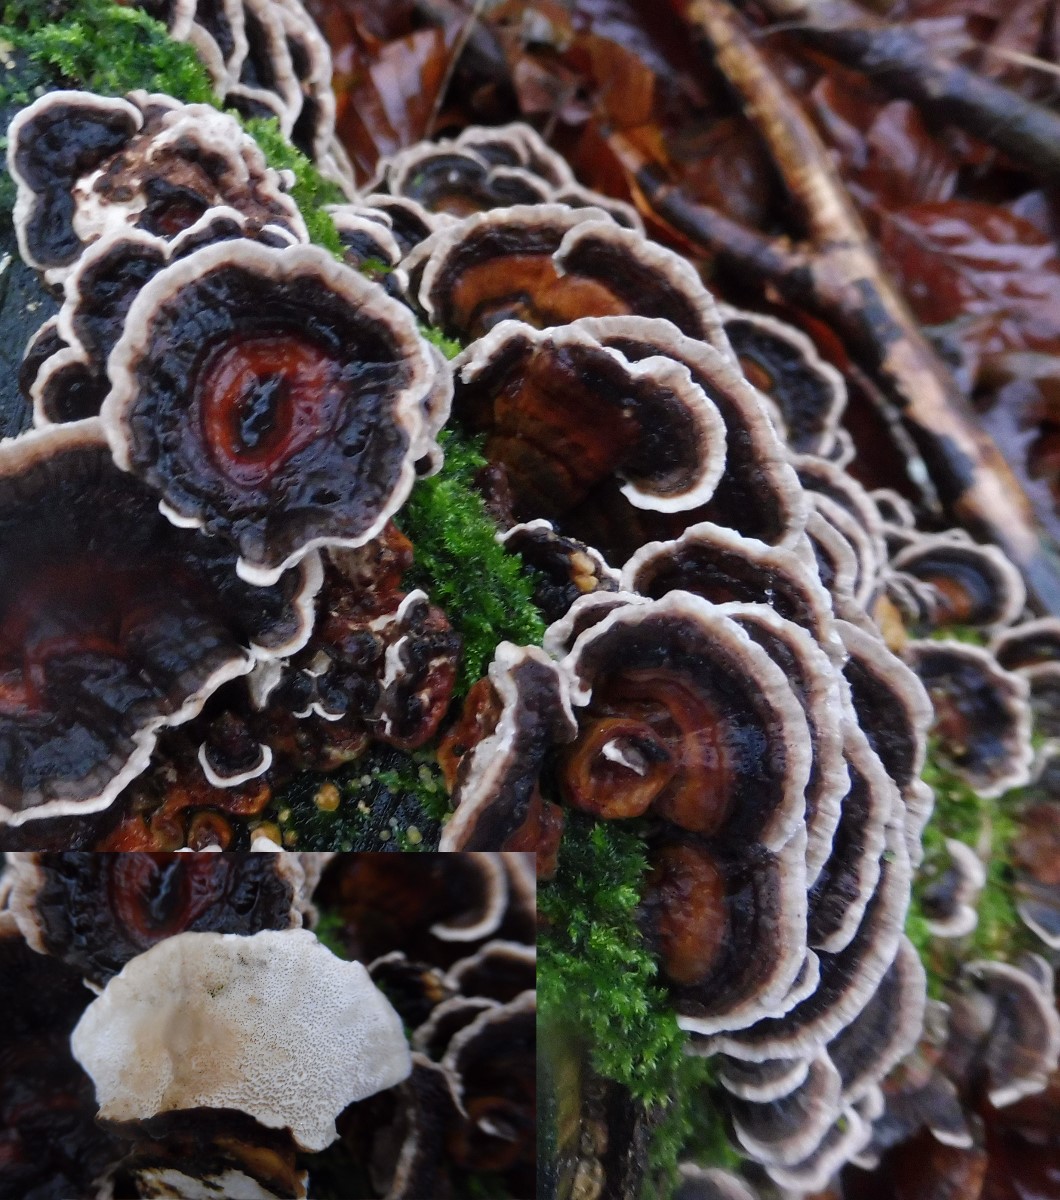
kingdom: Fungi
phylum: Basidiomycota
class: Agaricomycetes
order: Polyporales
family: Polyporaceae
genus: Trametes
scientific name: Trametes versicolor
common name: broget læderporesvamp
